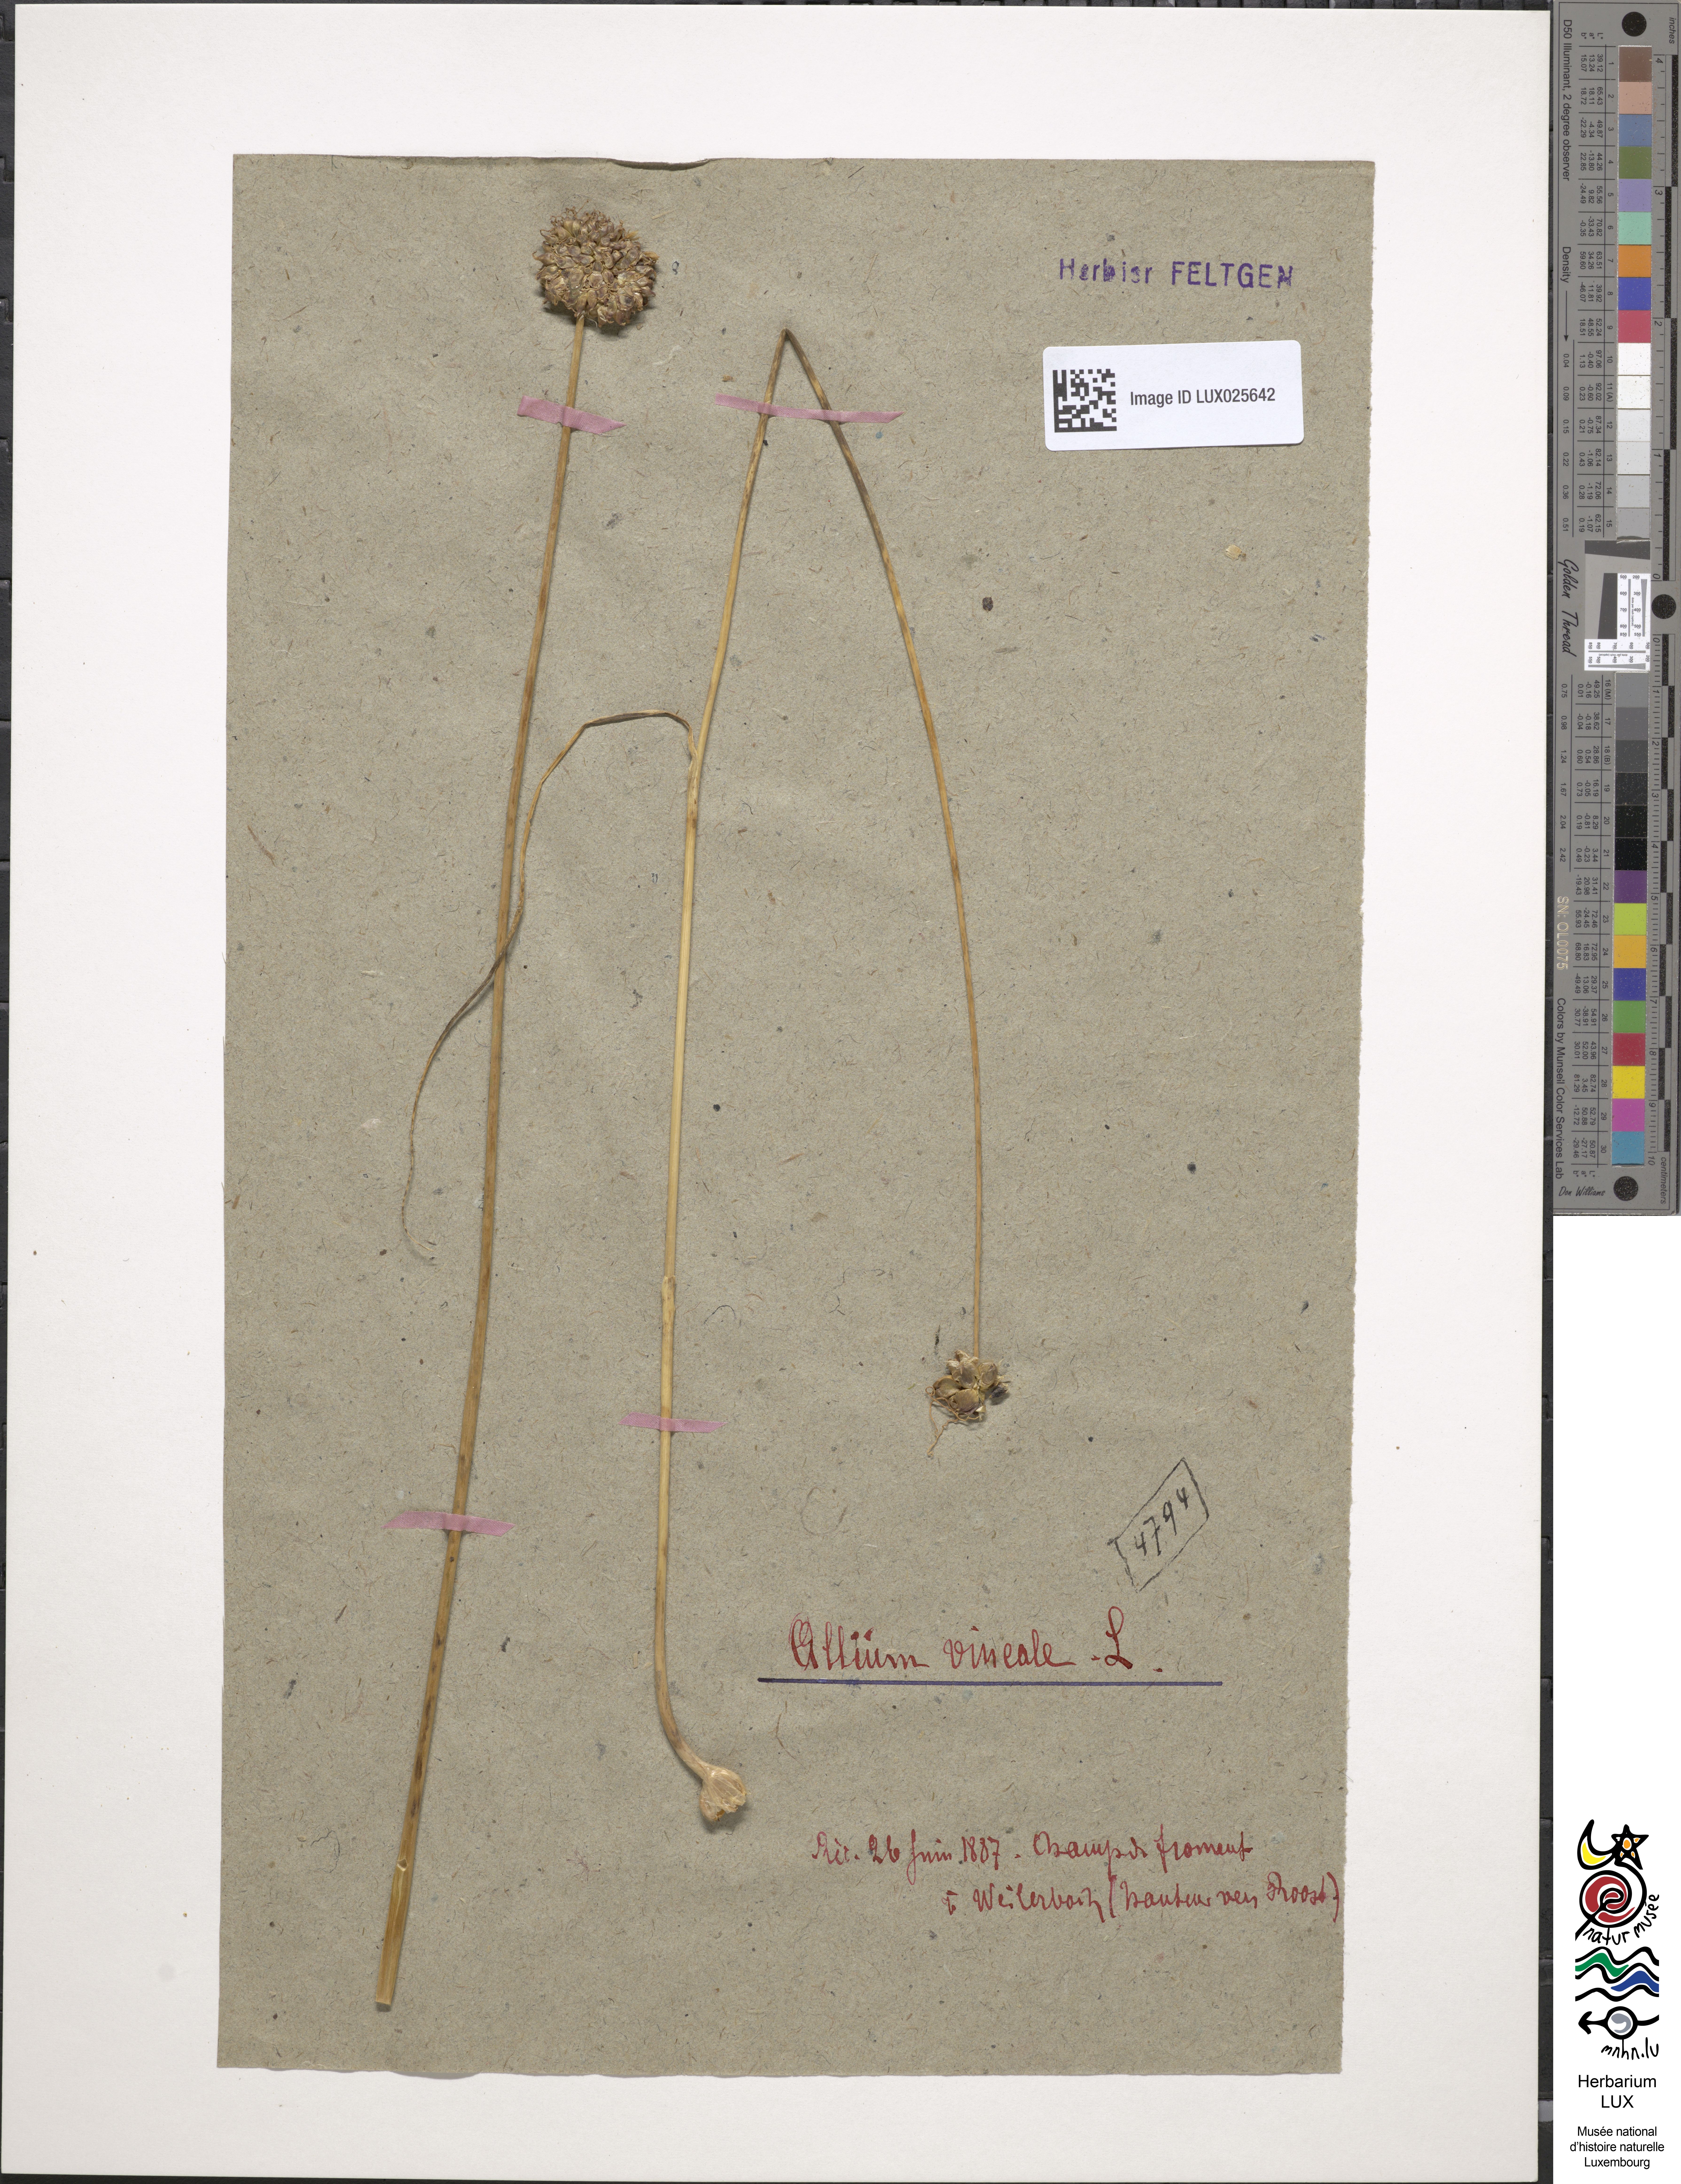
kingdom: Plantae
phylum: Tracheophyta
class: Liliopsida
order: Asparagales
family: Amaryllidaceae
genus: Allium
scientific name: Allium vineale
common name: Crow garlic
